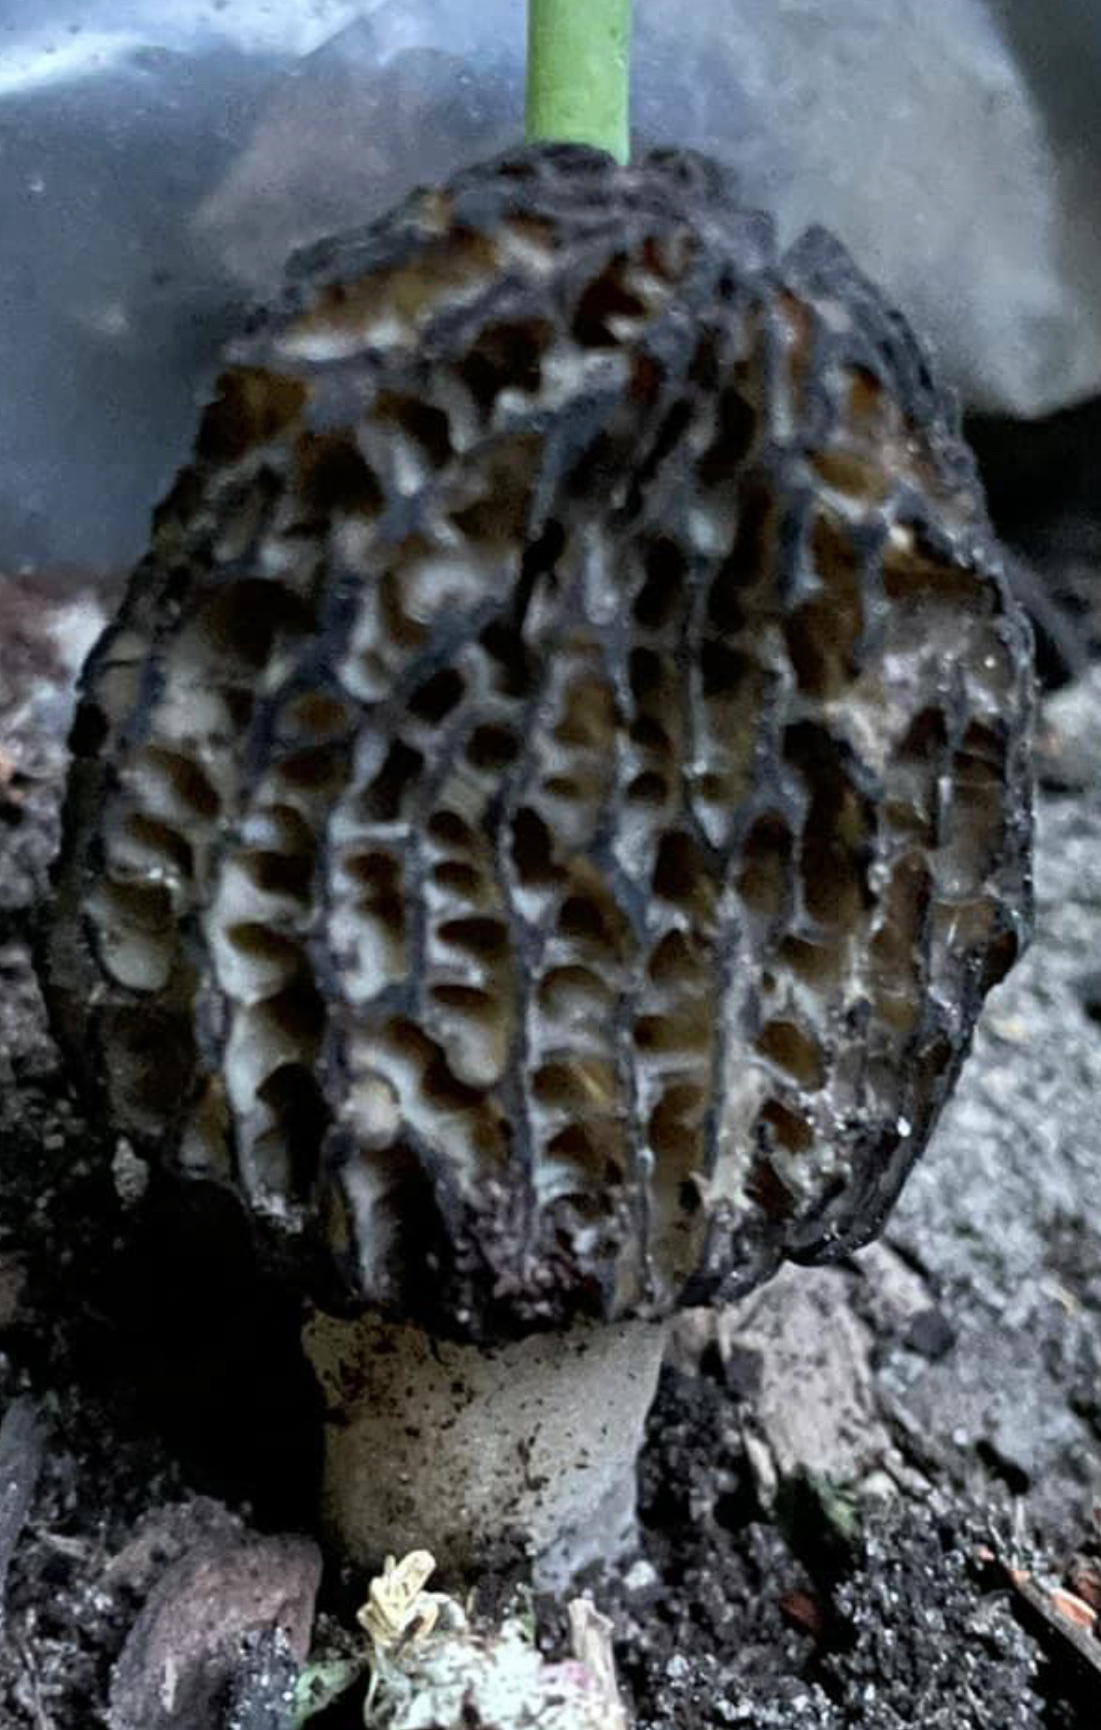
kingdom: Fungi
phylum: Ascomycota
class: Pezizomycetes
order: Pezizales
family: Morchellaceae
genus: Morchella
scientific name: Morchella
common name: morkel
